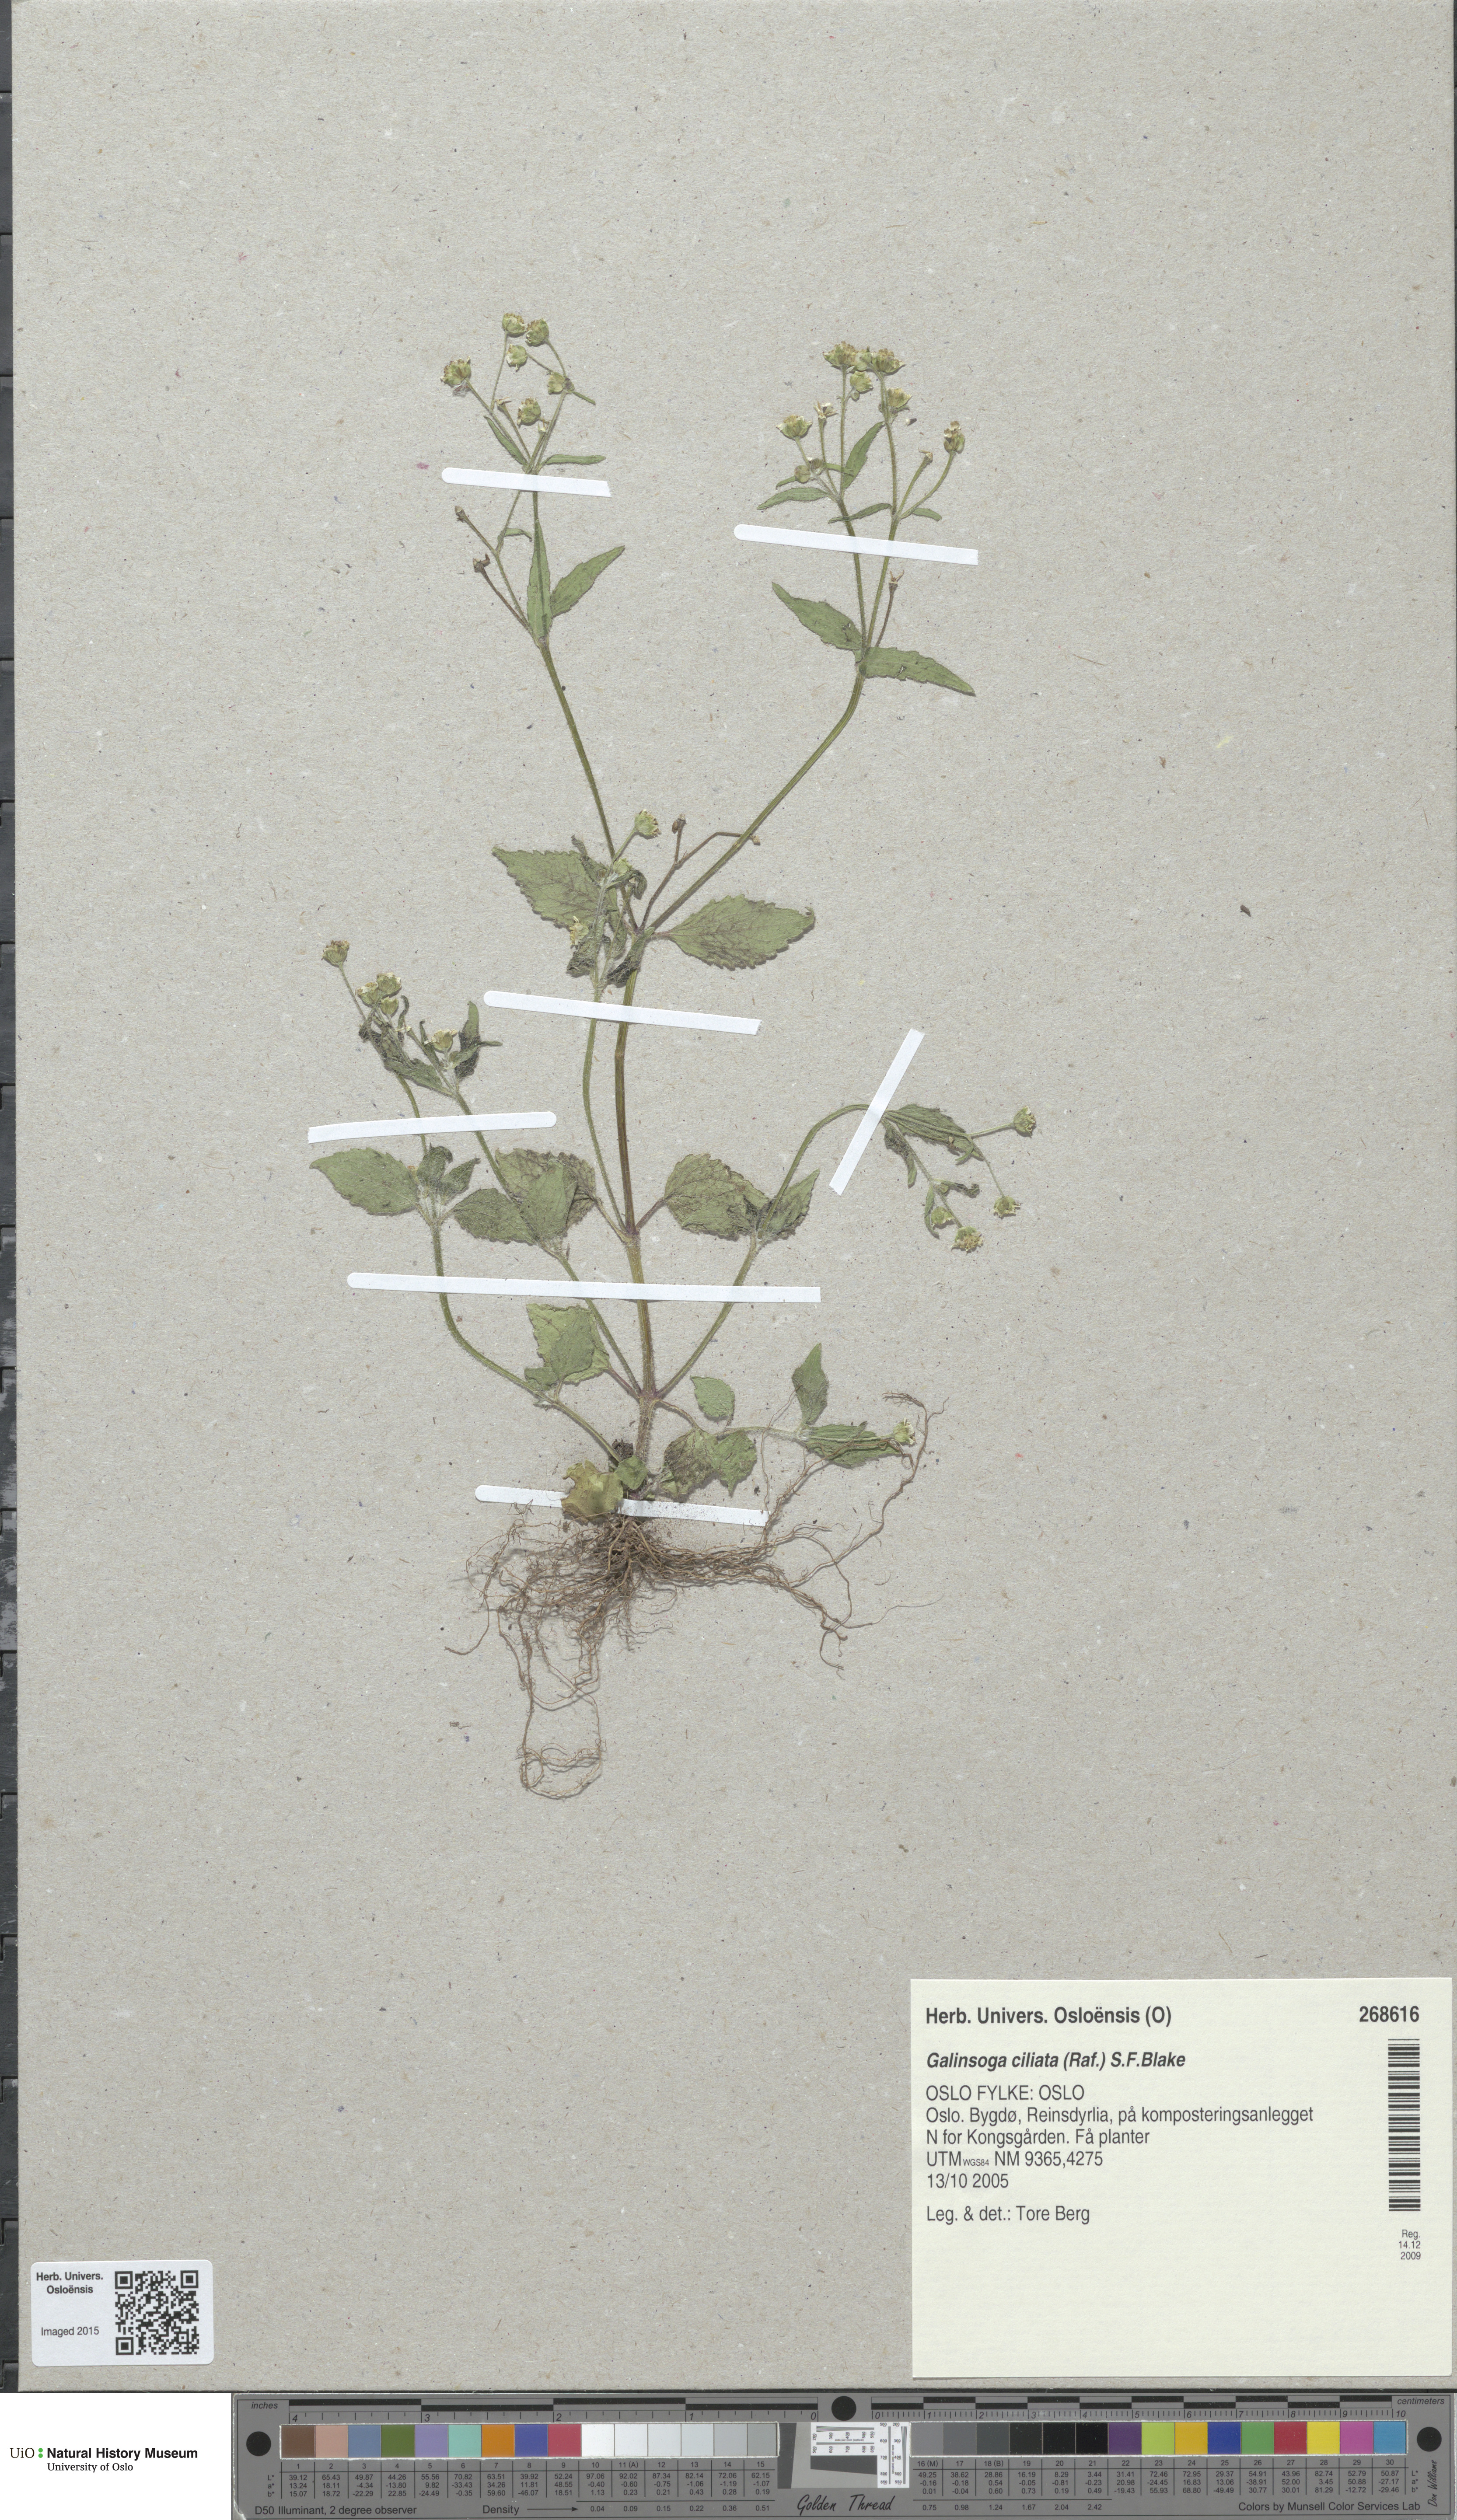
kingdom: Plantae
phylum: Tracheophyta
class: Magnoliopsida
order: Asterales
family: Asteraceae
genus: Galinsoga
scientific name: Galinsoga quadriradiata
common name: Shaggy soldier
